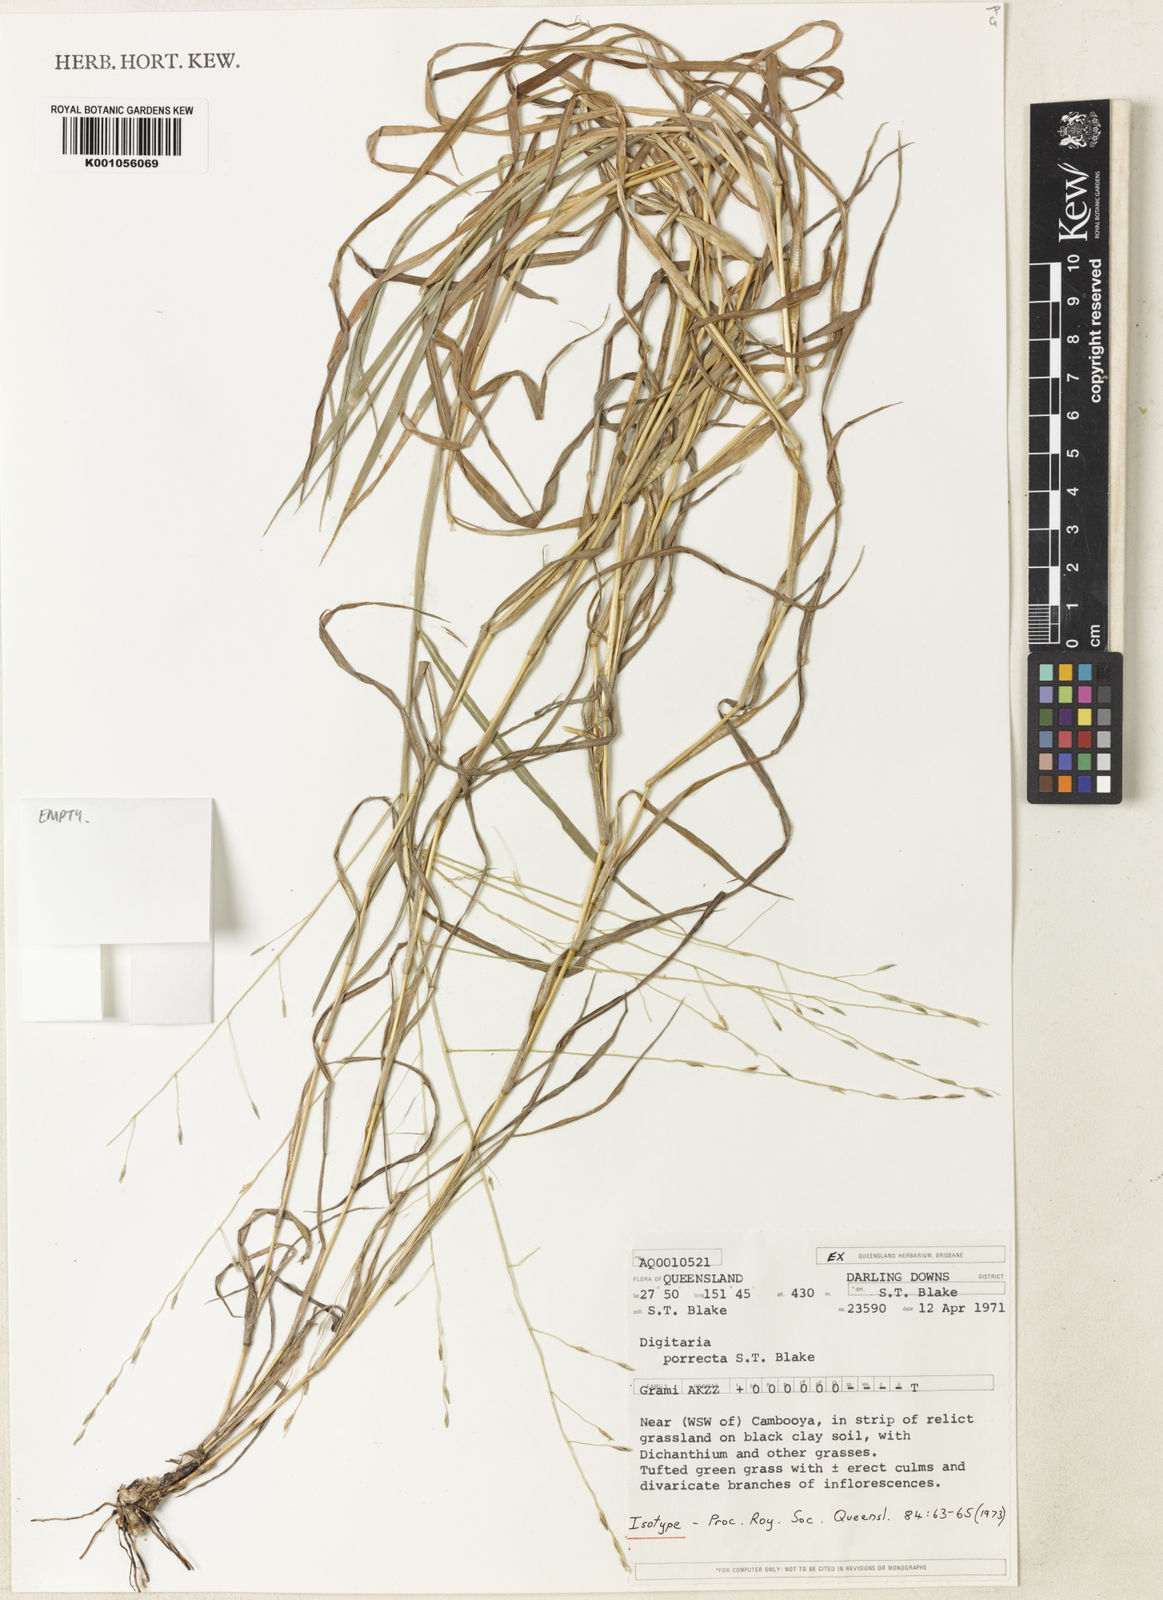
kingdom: Plantae
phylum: Tracheophyta
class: Liliopsida
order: Poales
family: Poaceae
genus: Digitaria
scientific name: Digitaria porrecta
